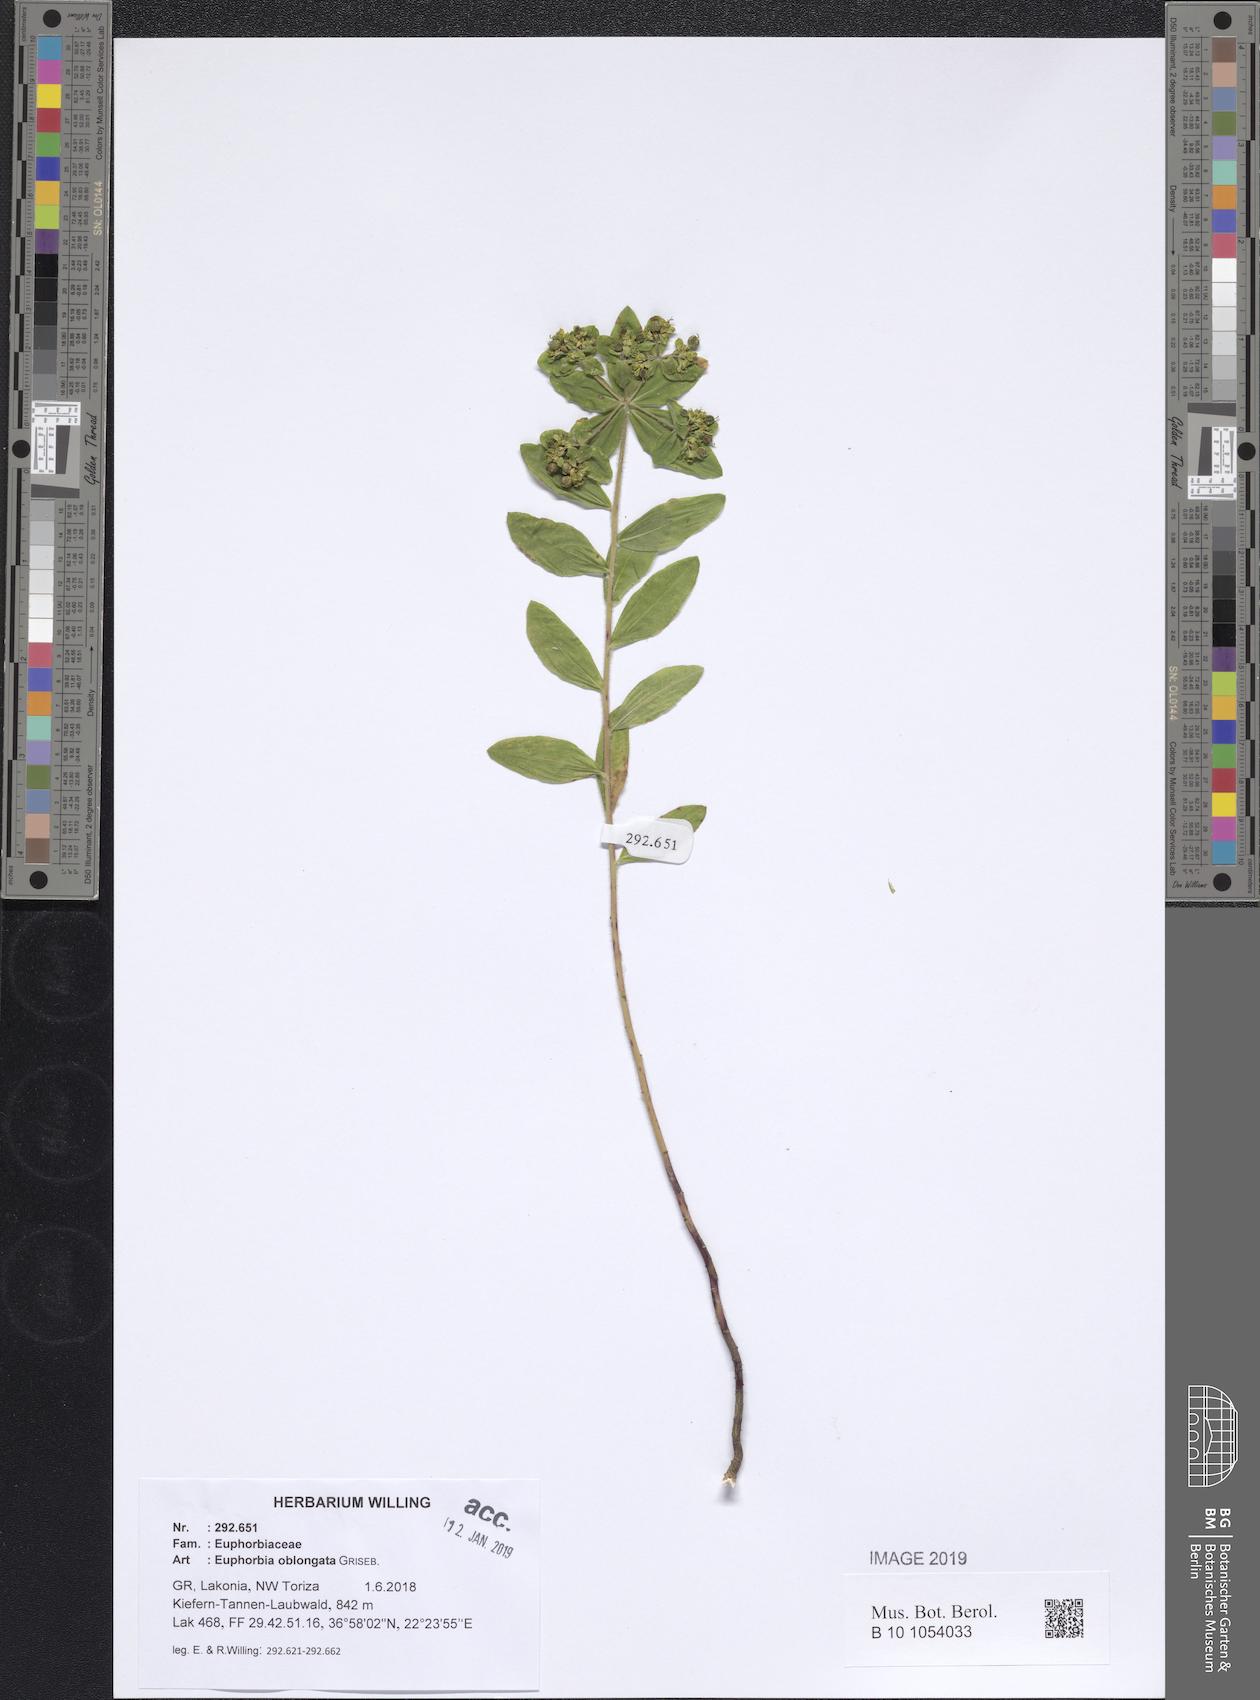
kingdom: Plantae
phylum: Tracheophyta
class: Magnoliopsida
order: Malpighiales
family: Euphorbiaceae
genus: Euphorbia
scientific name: Euphorbia oblongata
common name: Balkan spurge
